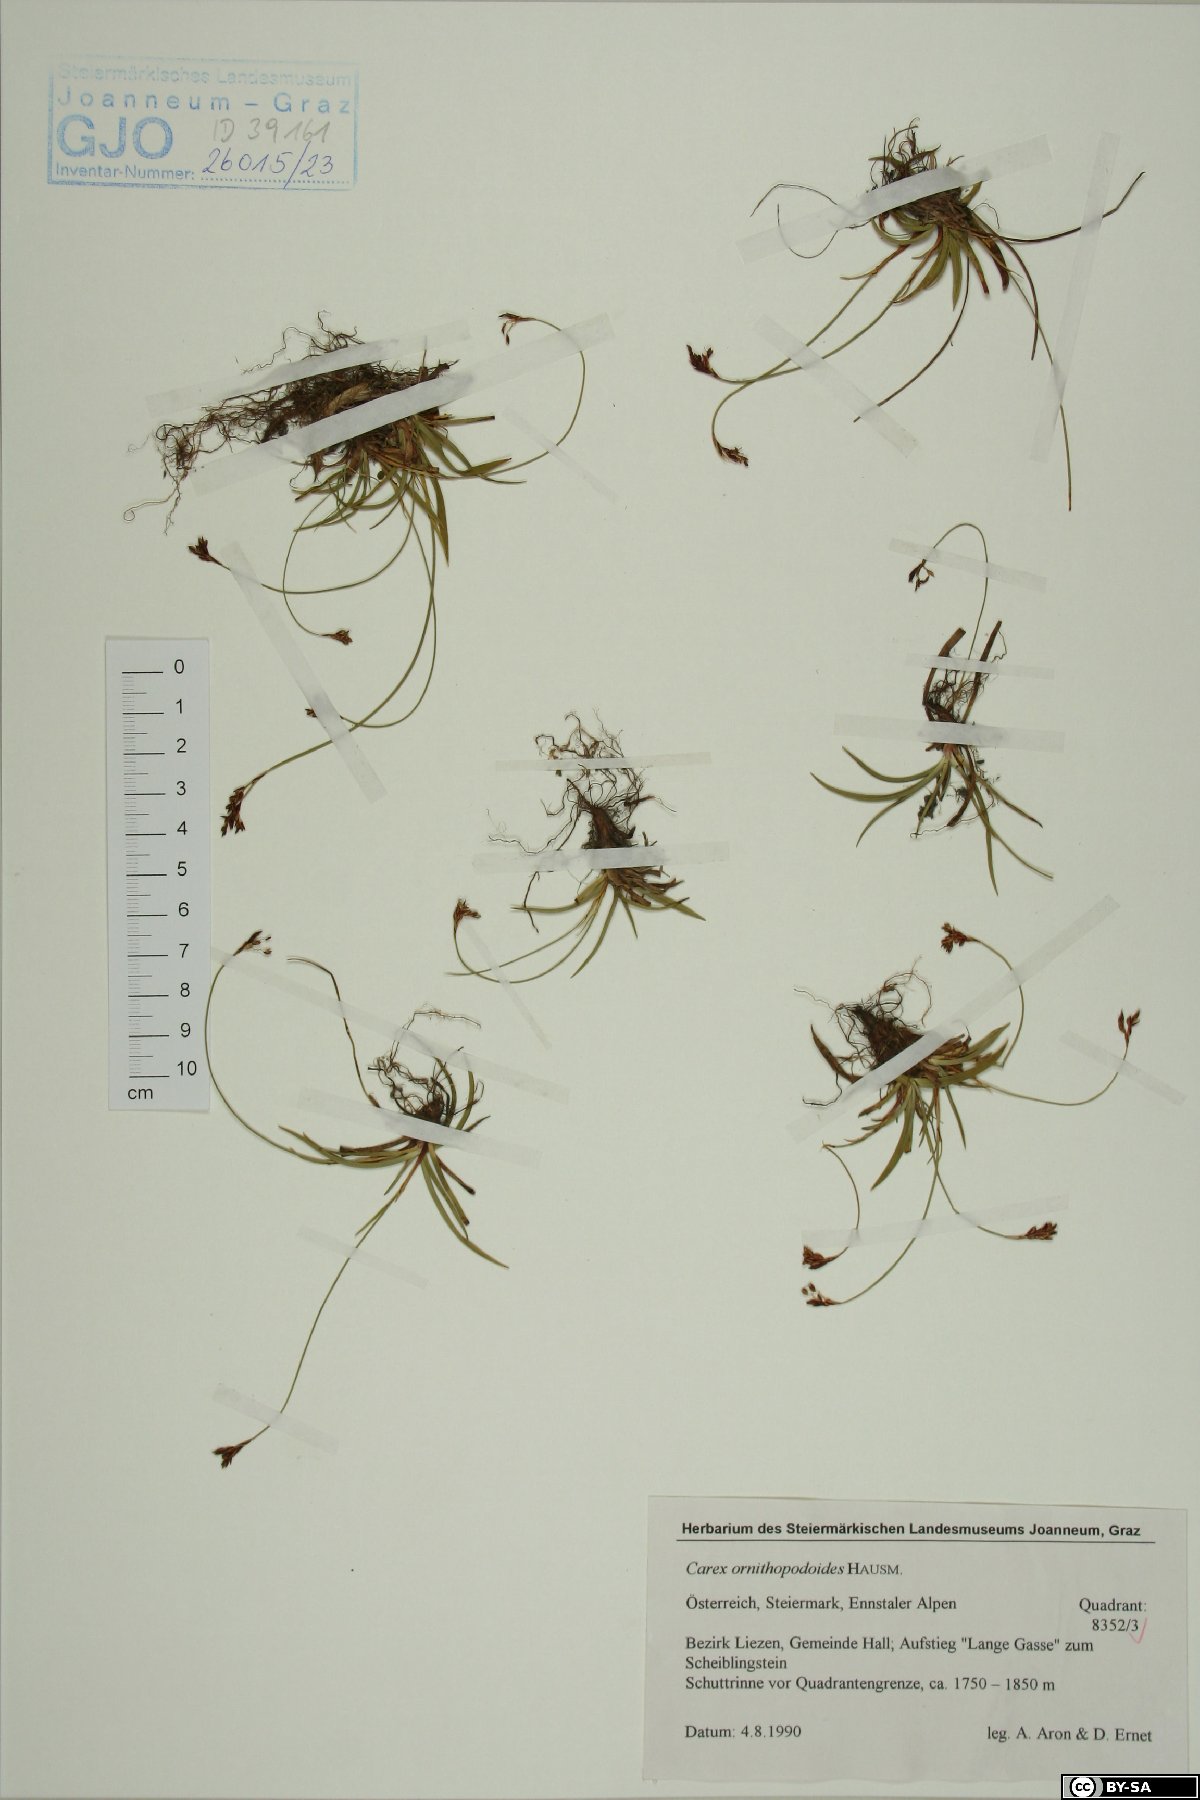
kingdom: Plantae
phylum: Tracheophyta
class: Liliopsida
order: Poales
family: Cyperaceae
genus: Carex
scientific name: Carex ornithopoda
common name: Bird's-foot sedge
